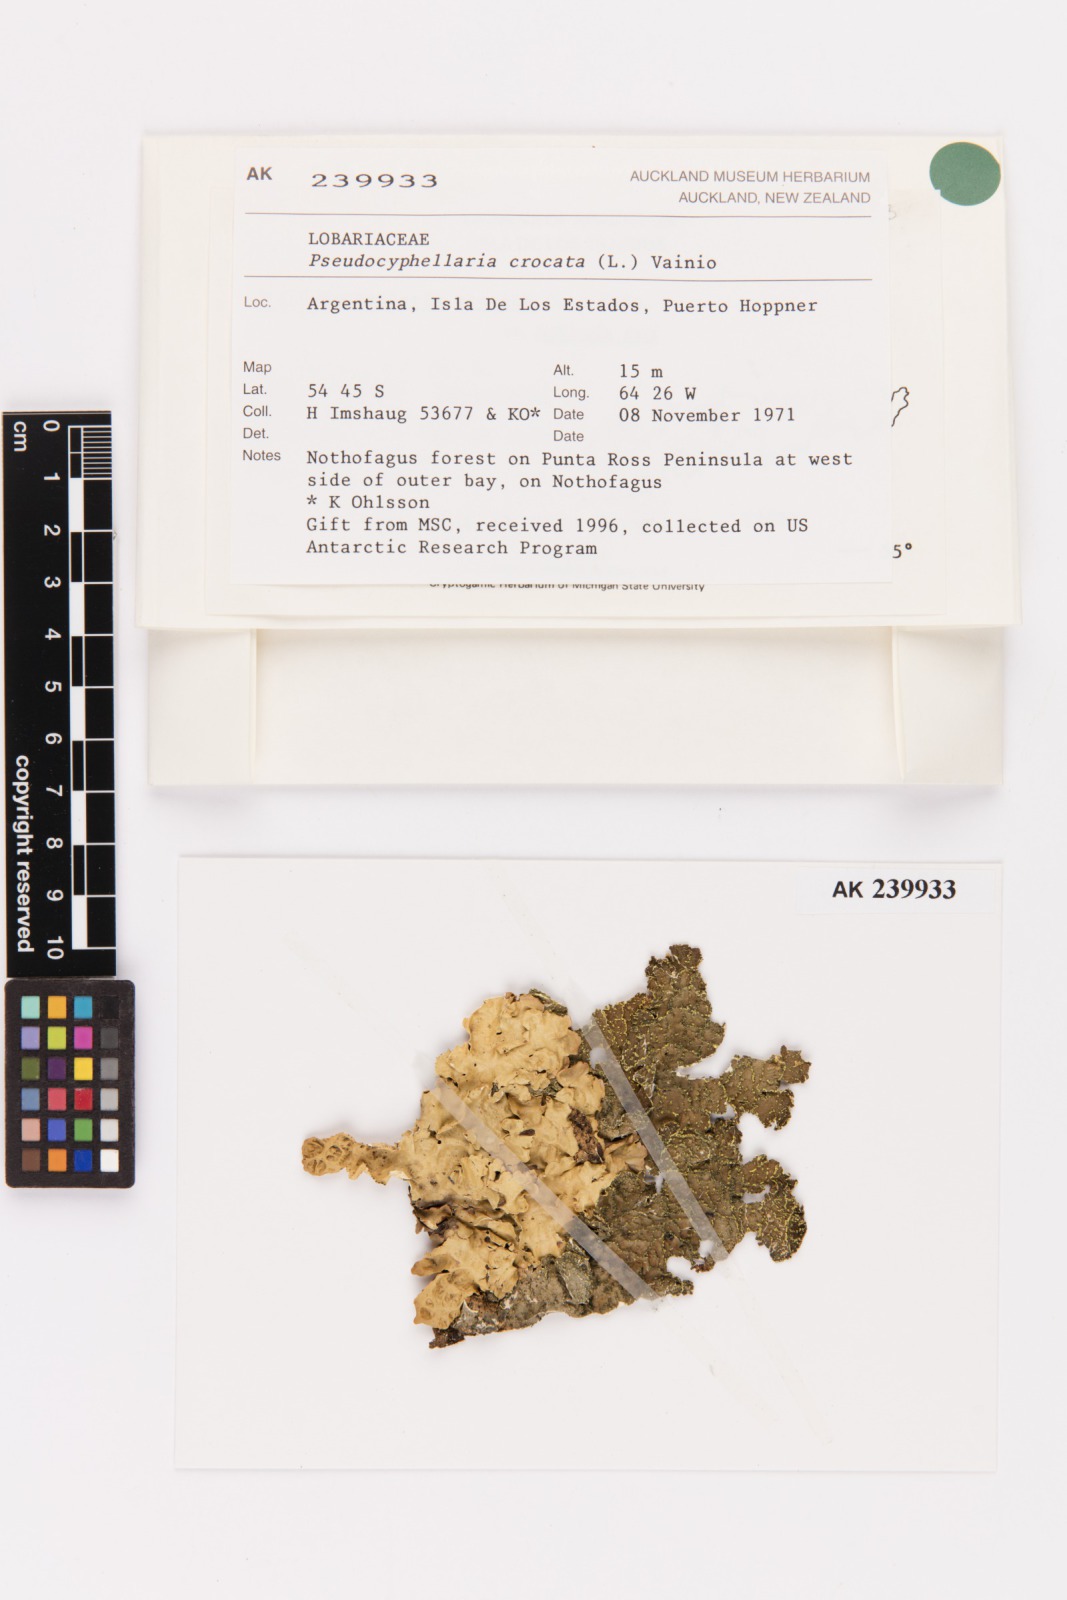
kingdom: Fungi
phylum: Ascomycota
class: Lecanoromycetes
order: Peltigerales
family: Lobariaceae
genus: Pseudocyphellaria
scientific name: Pseudocyphellaria crocata
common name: Golden specklebelly
